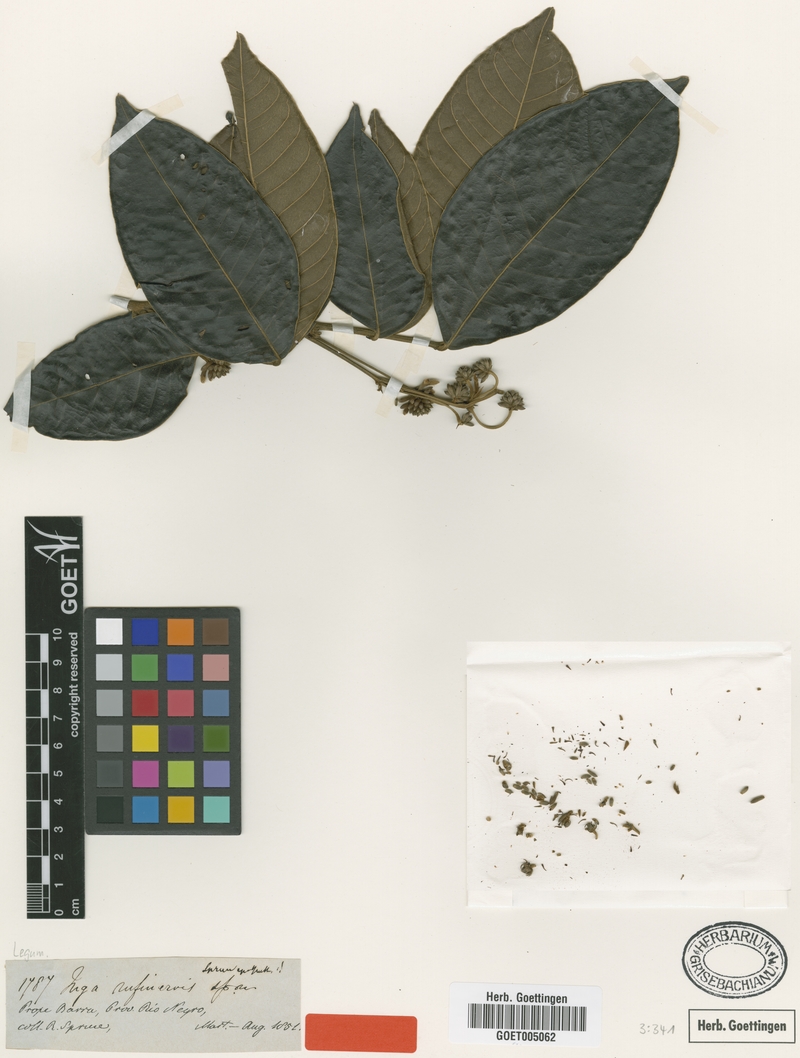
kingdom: Plantae
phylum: Tracheophyta
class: Magnoliopsida
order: Fabales
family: Fabaceae
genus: Inga
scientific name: Inga punctata
